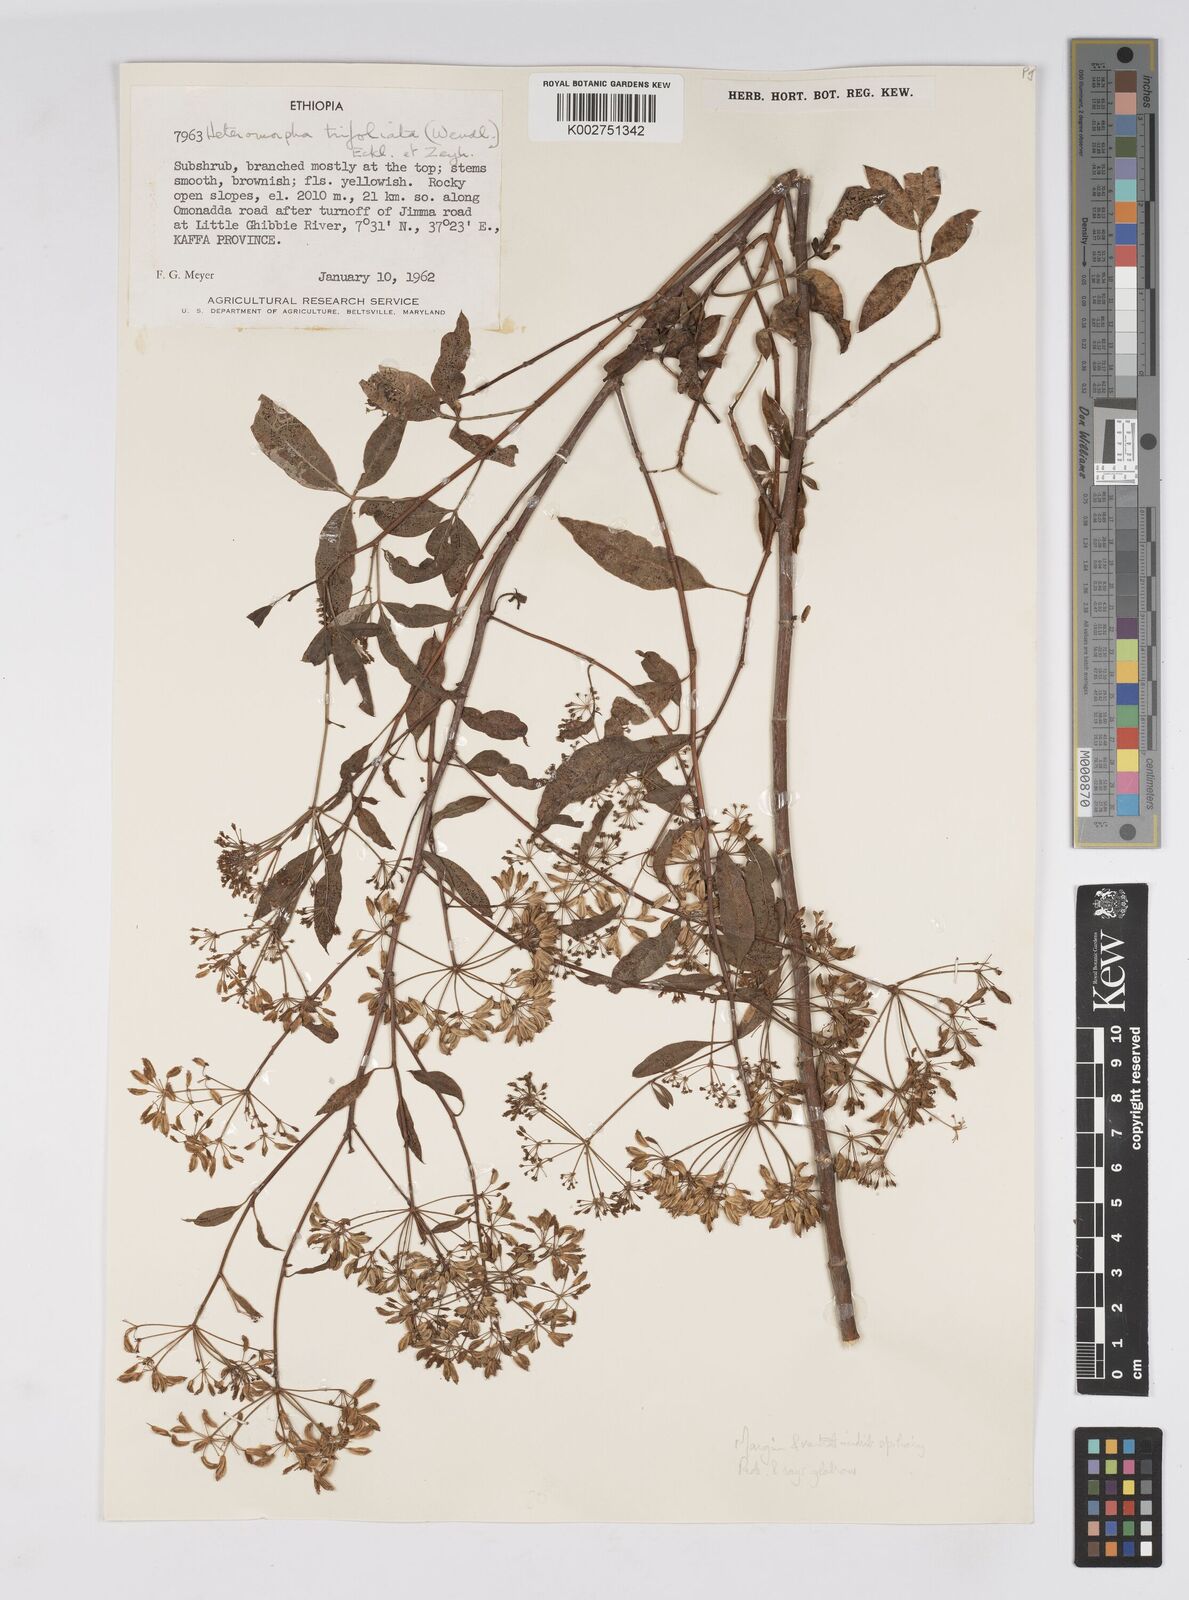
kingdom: Plantae
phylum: Tracheophyta
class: Magnoliopsida
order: Apiales
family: Apiaceae
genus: Heteromorpha
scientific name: Heteromorpha
